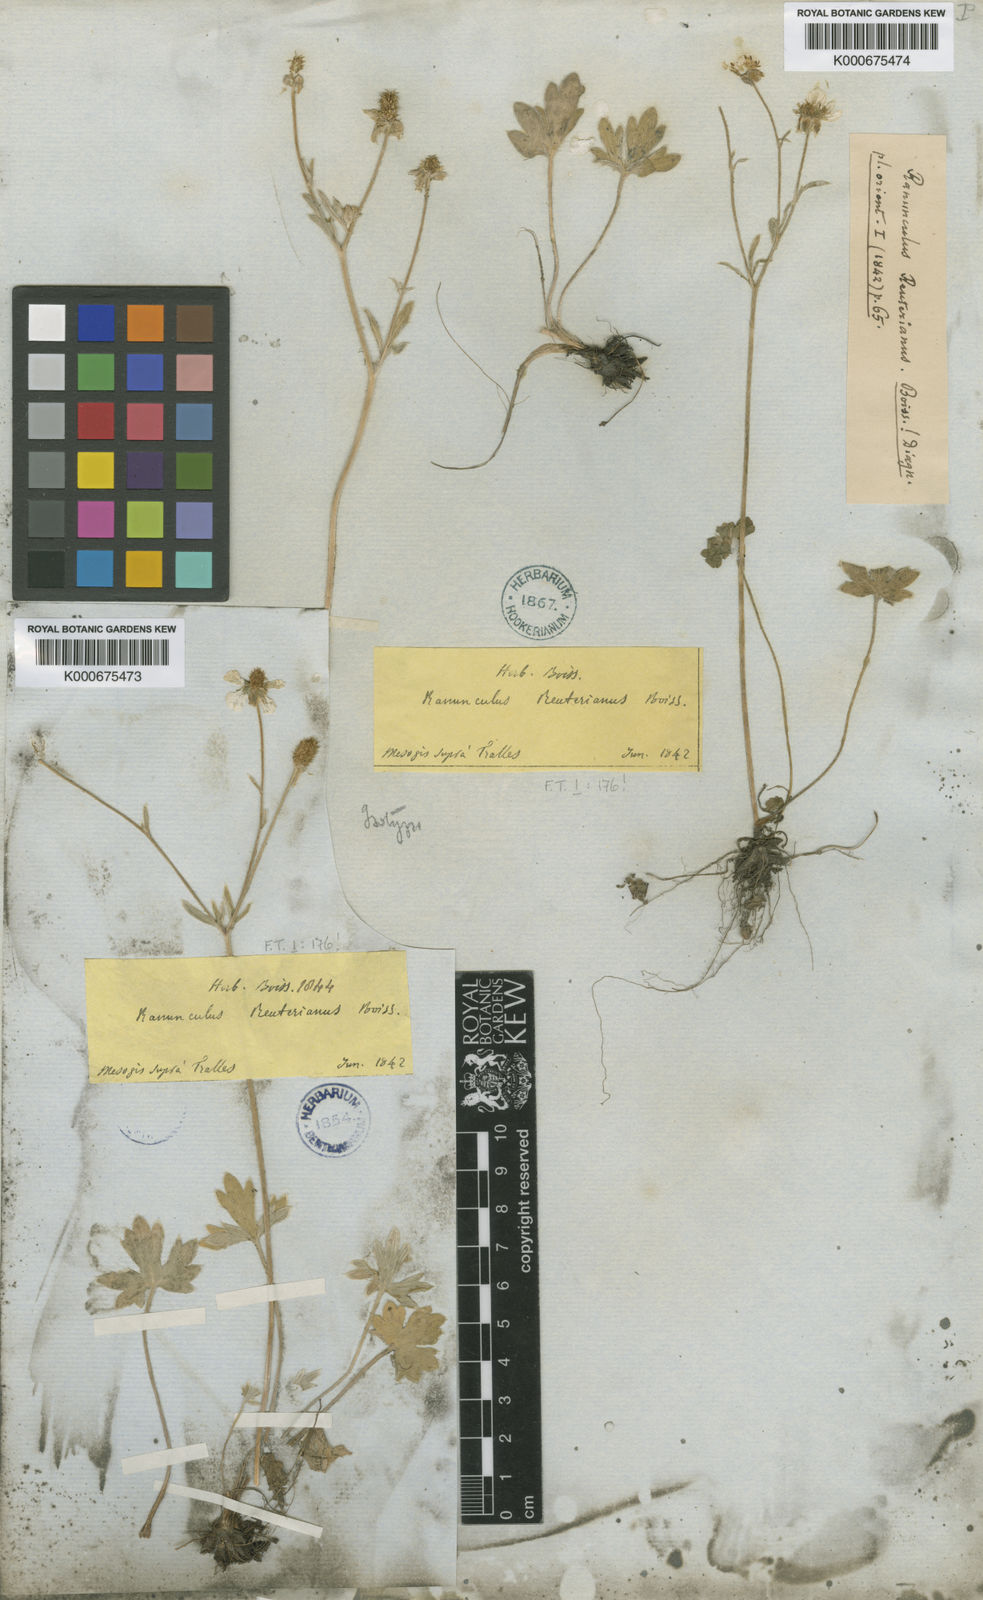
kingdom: Plantae
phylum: Tracheophyta
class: Magnoliopsida
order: Ranunculales
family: Ranunculaceae
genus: Ranunculus
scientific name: Ranunculus reuterianus
